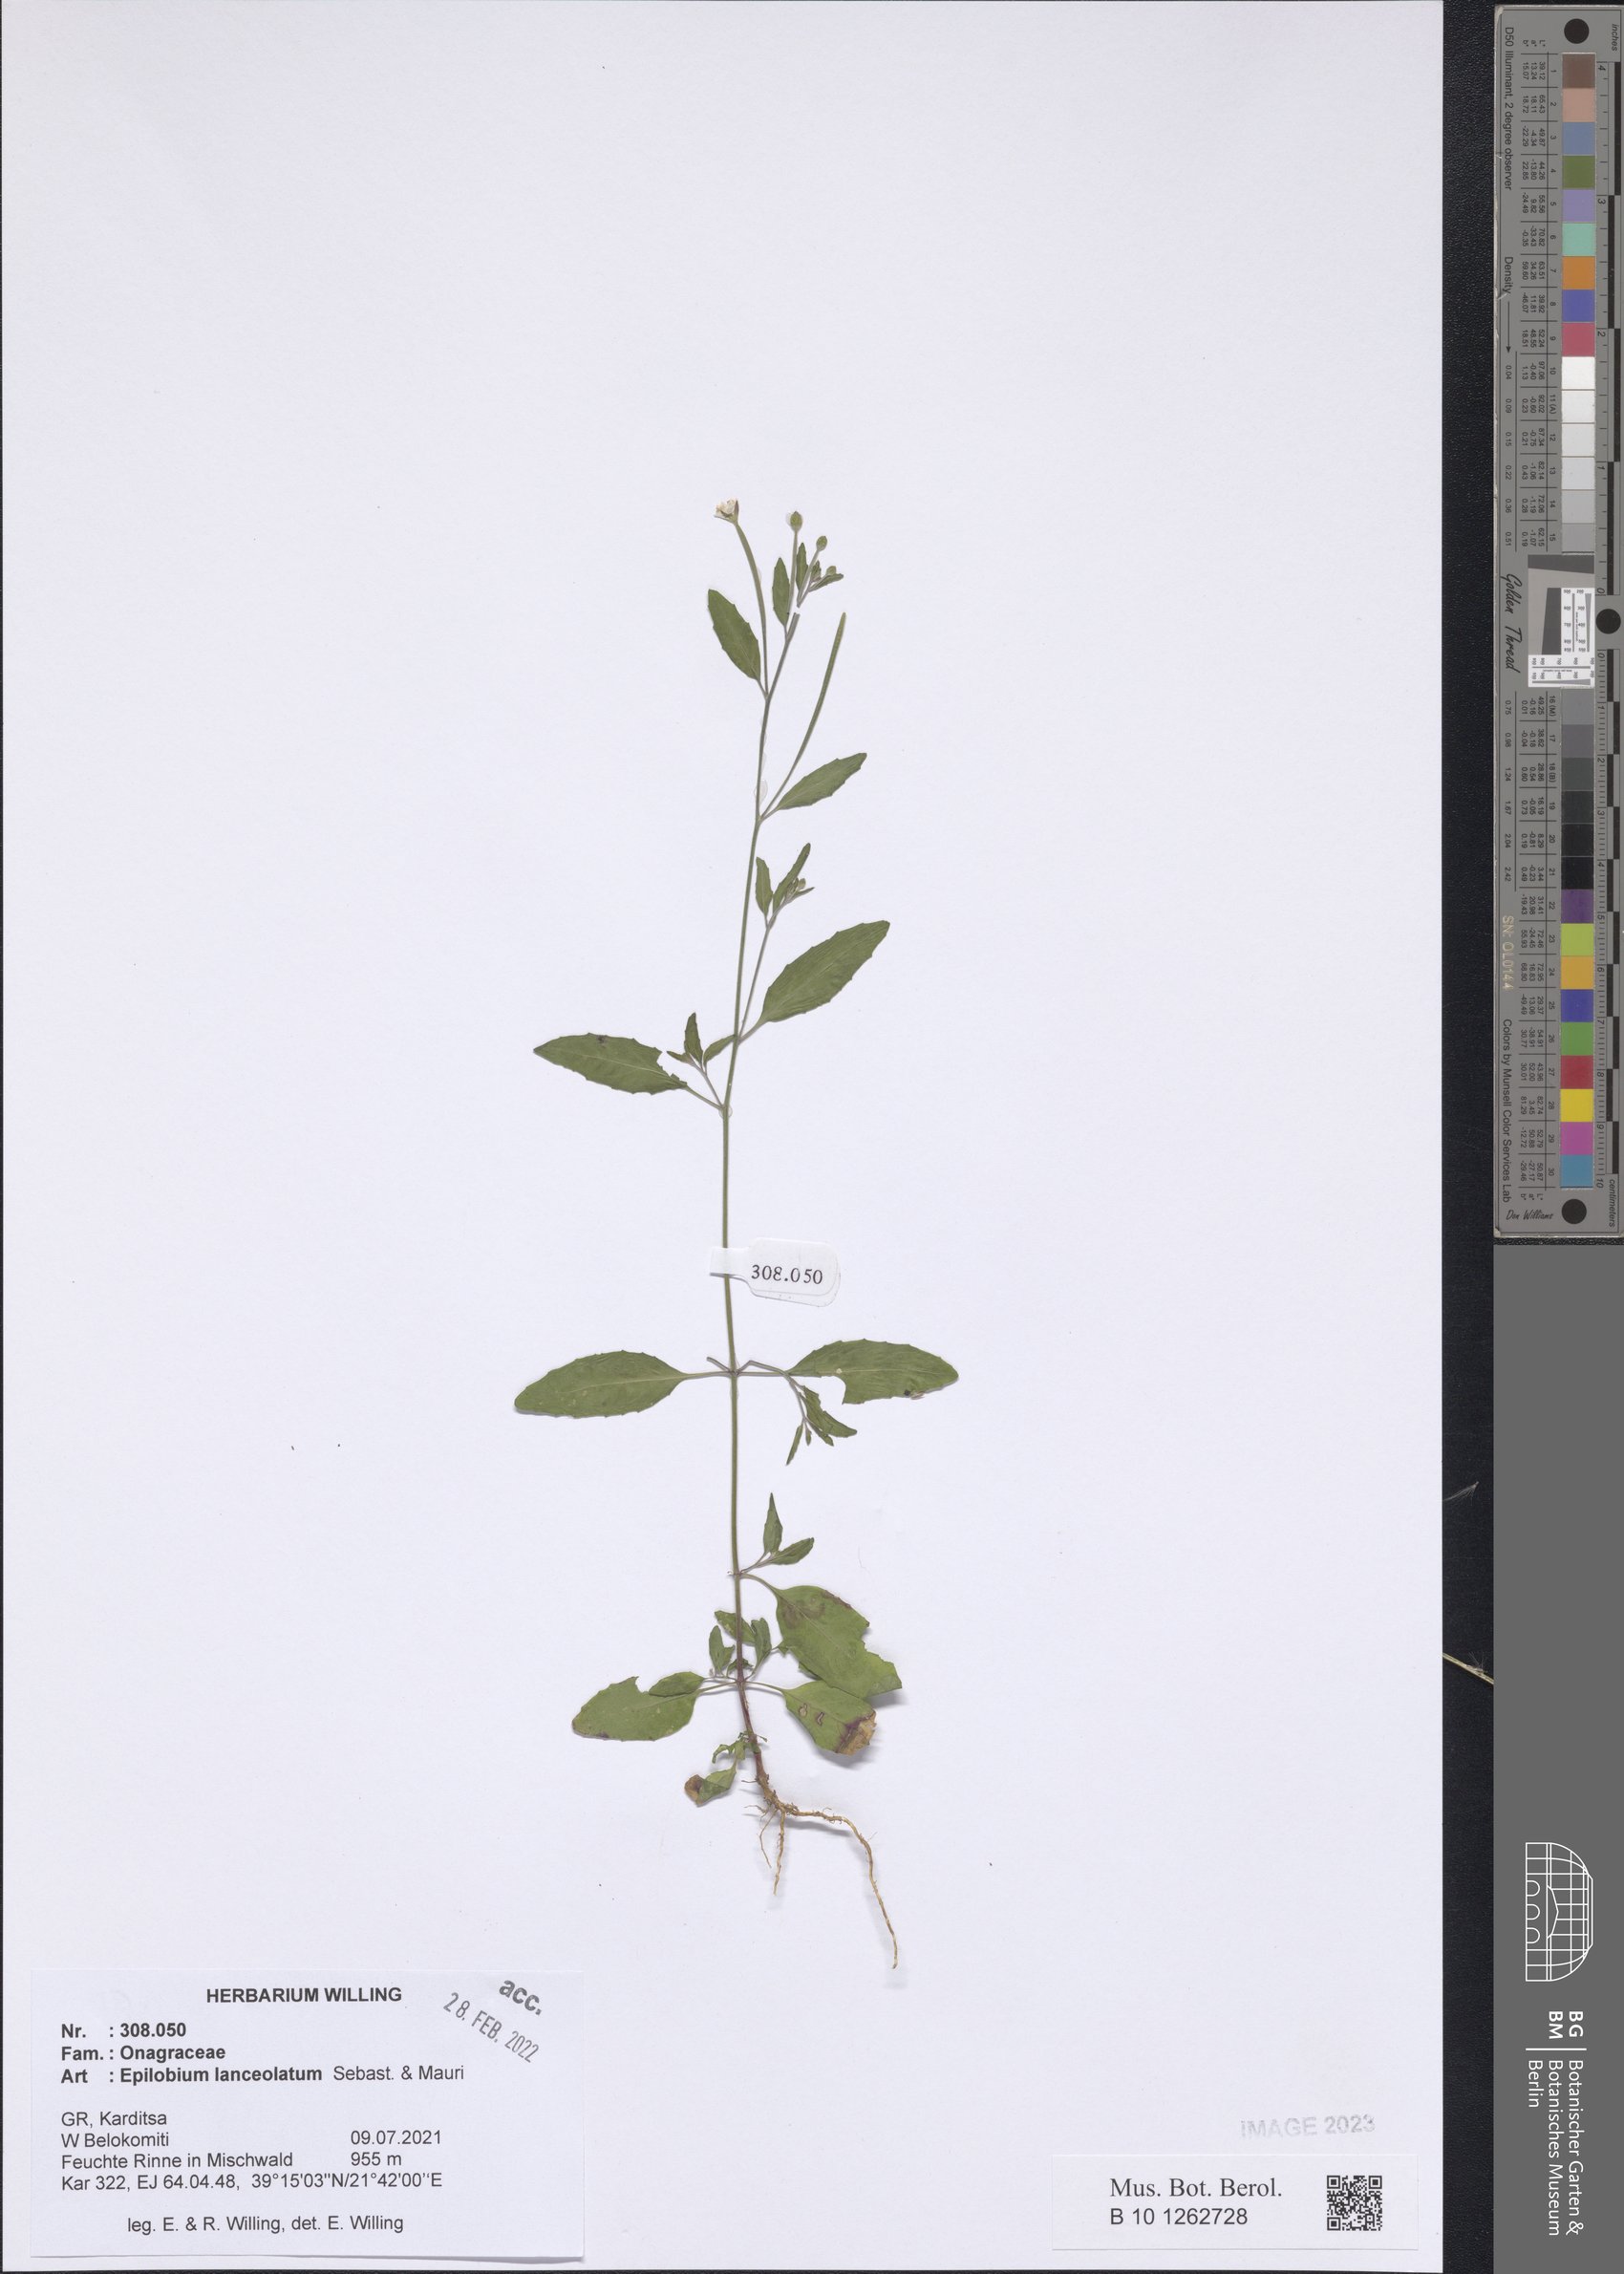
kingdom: Plantae
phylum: Tracheophyta
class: Magnoliopsida
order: Myrtales
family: Onagraceae
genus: Epilobium
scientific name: Epilobium lanceolatum
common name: Spear-leaved willowherb
